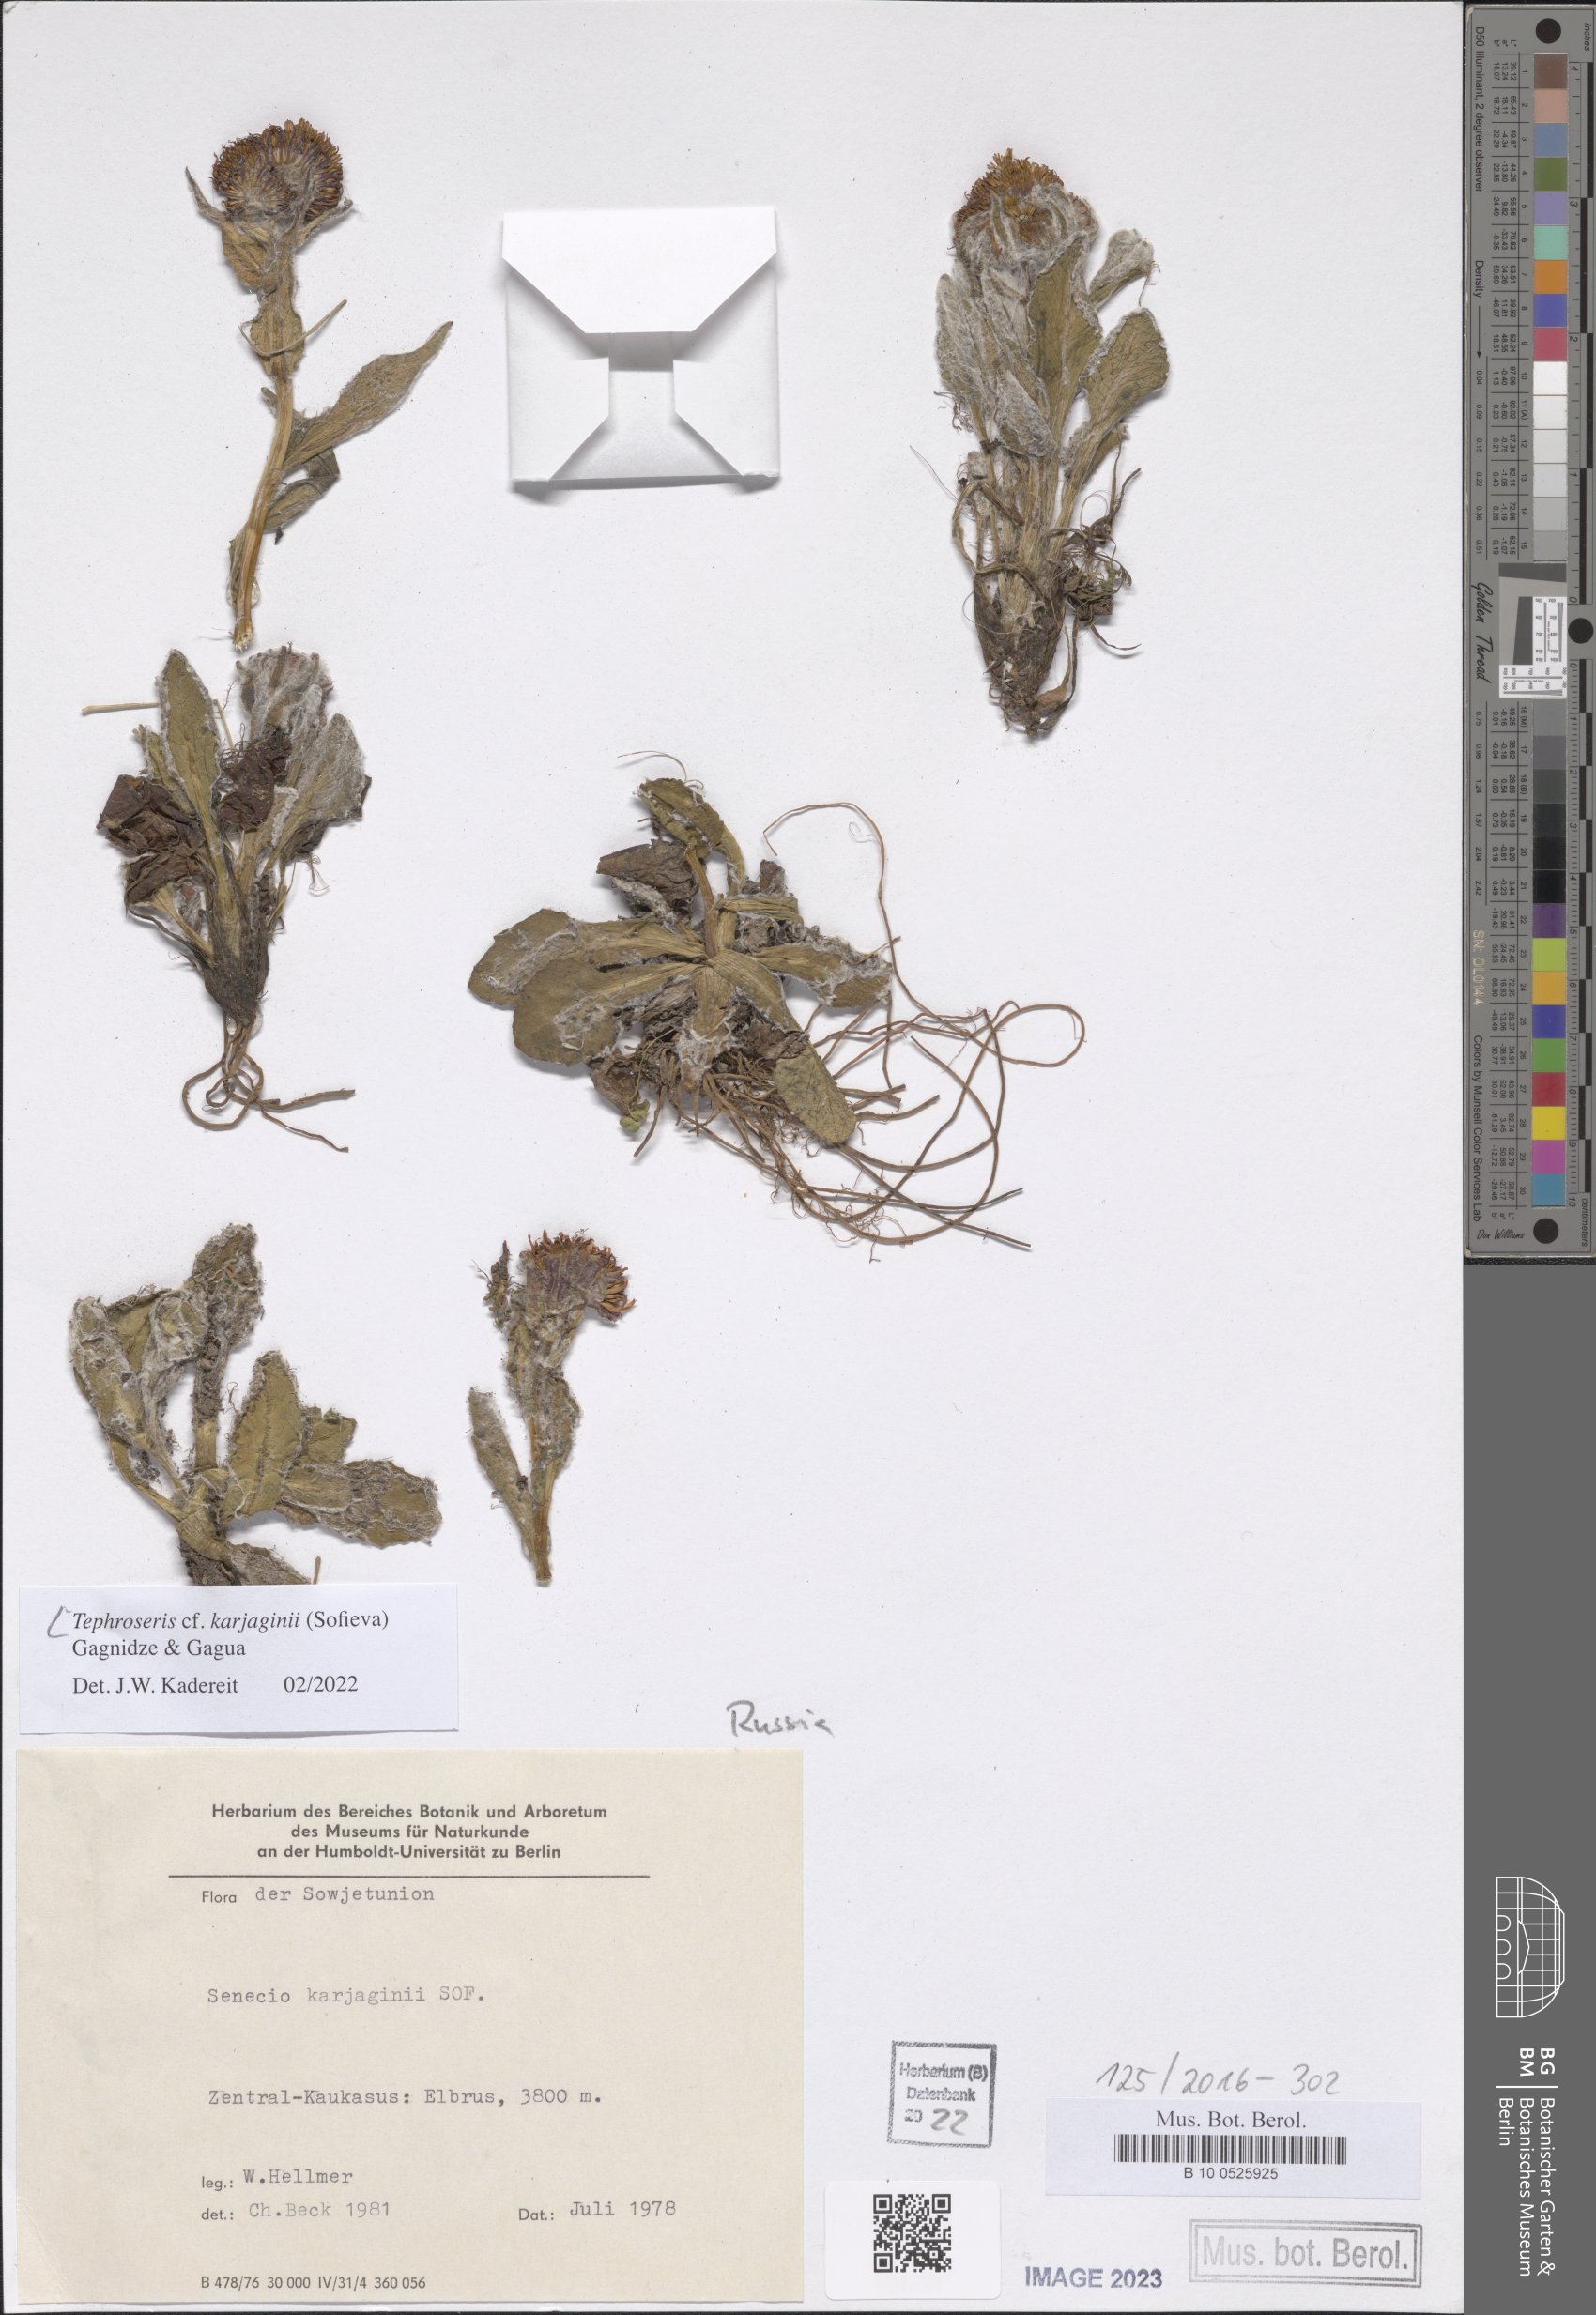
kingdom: Plantae
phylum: Tracheophyta
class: Magnoliopsida
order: Asterales
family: Asteraceae
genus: Tephroseris
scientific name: Tephroseris integrifolia
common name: Field fleawort
